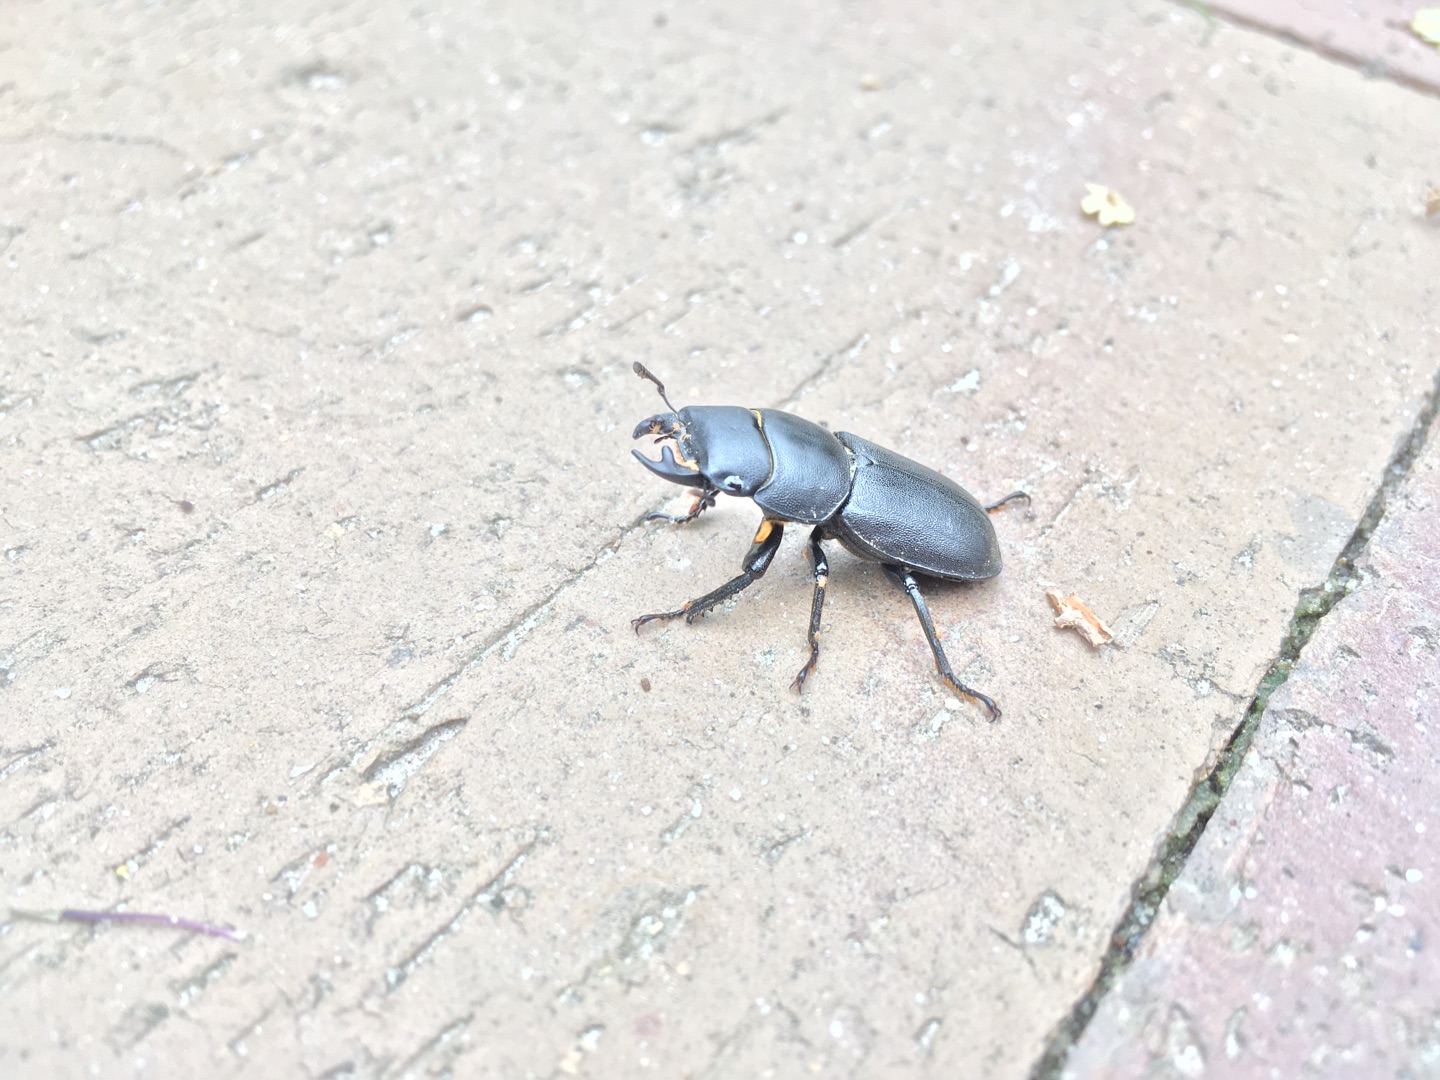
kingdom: Animalia
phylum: Arthropoda
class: Insecta
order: Coleoptera
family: Lucanidae
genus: Dorcus
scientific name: Dorcus parallelipipedus
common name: Bøghjort
